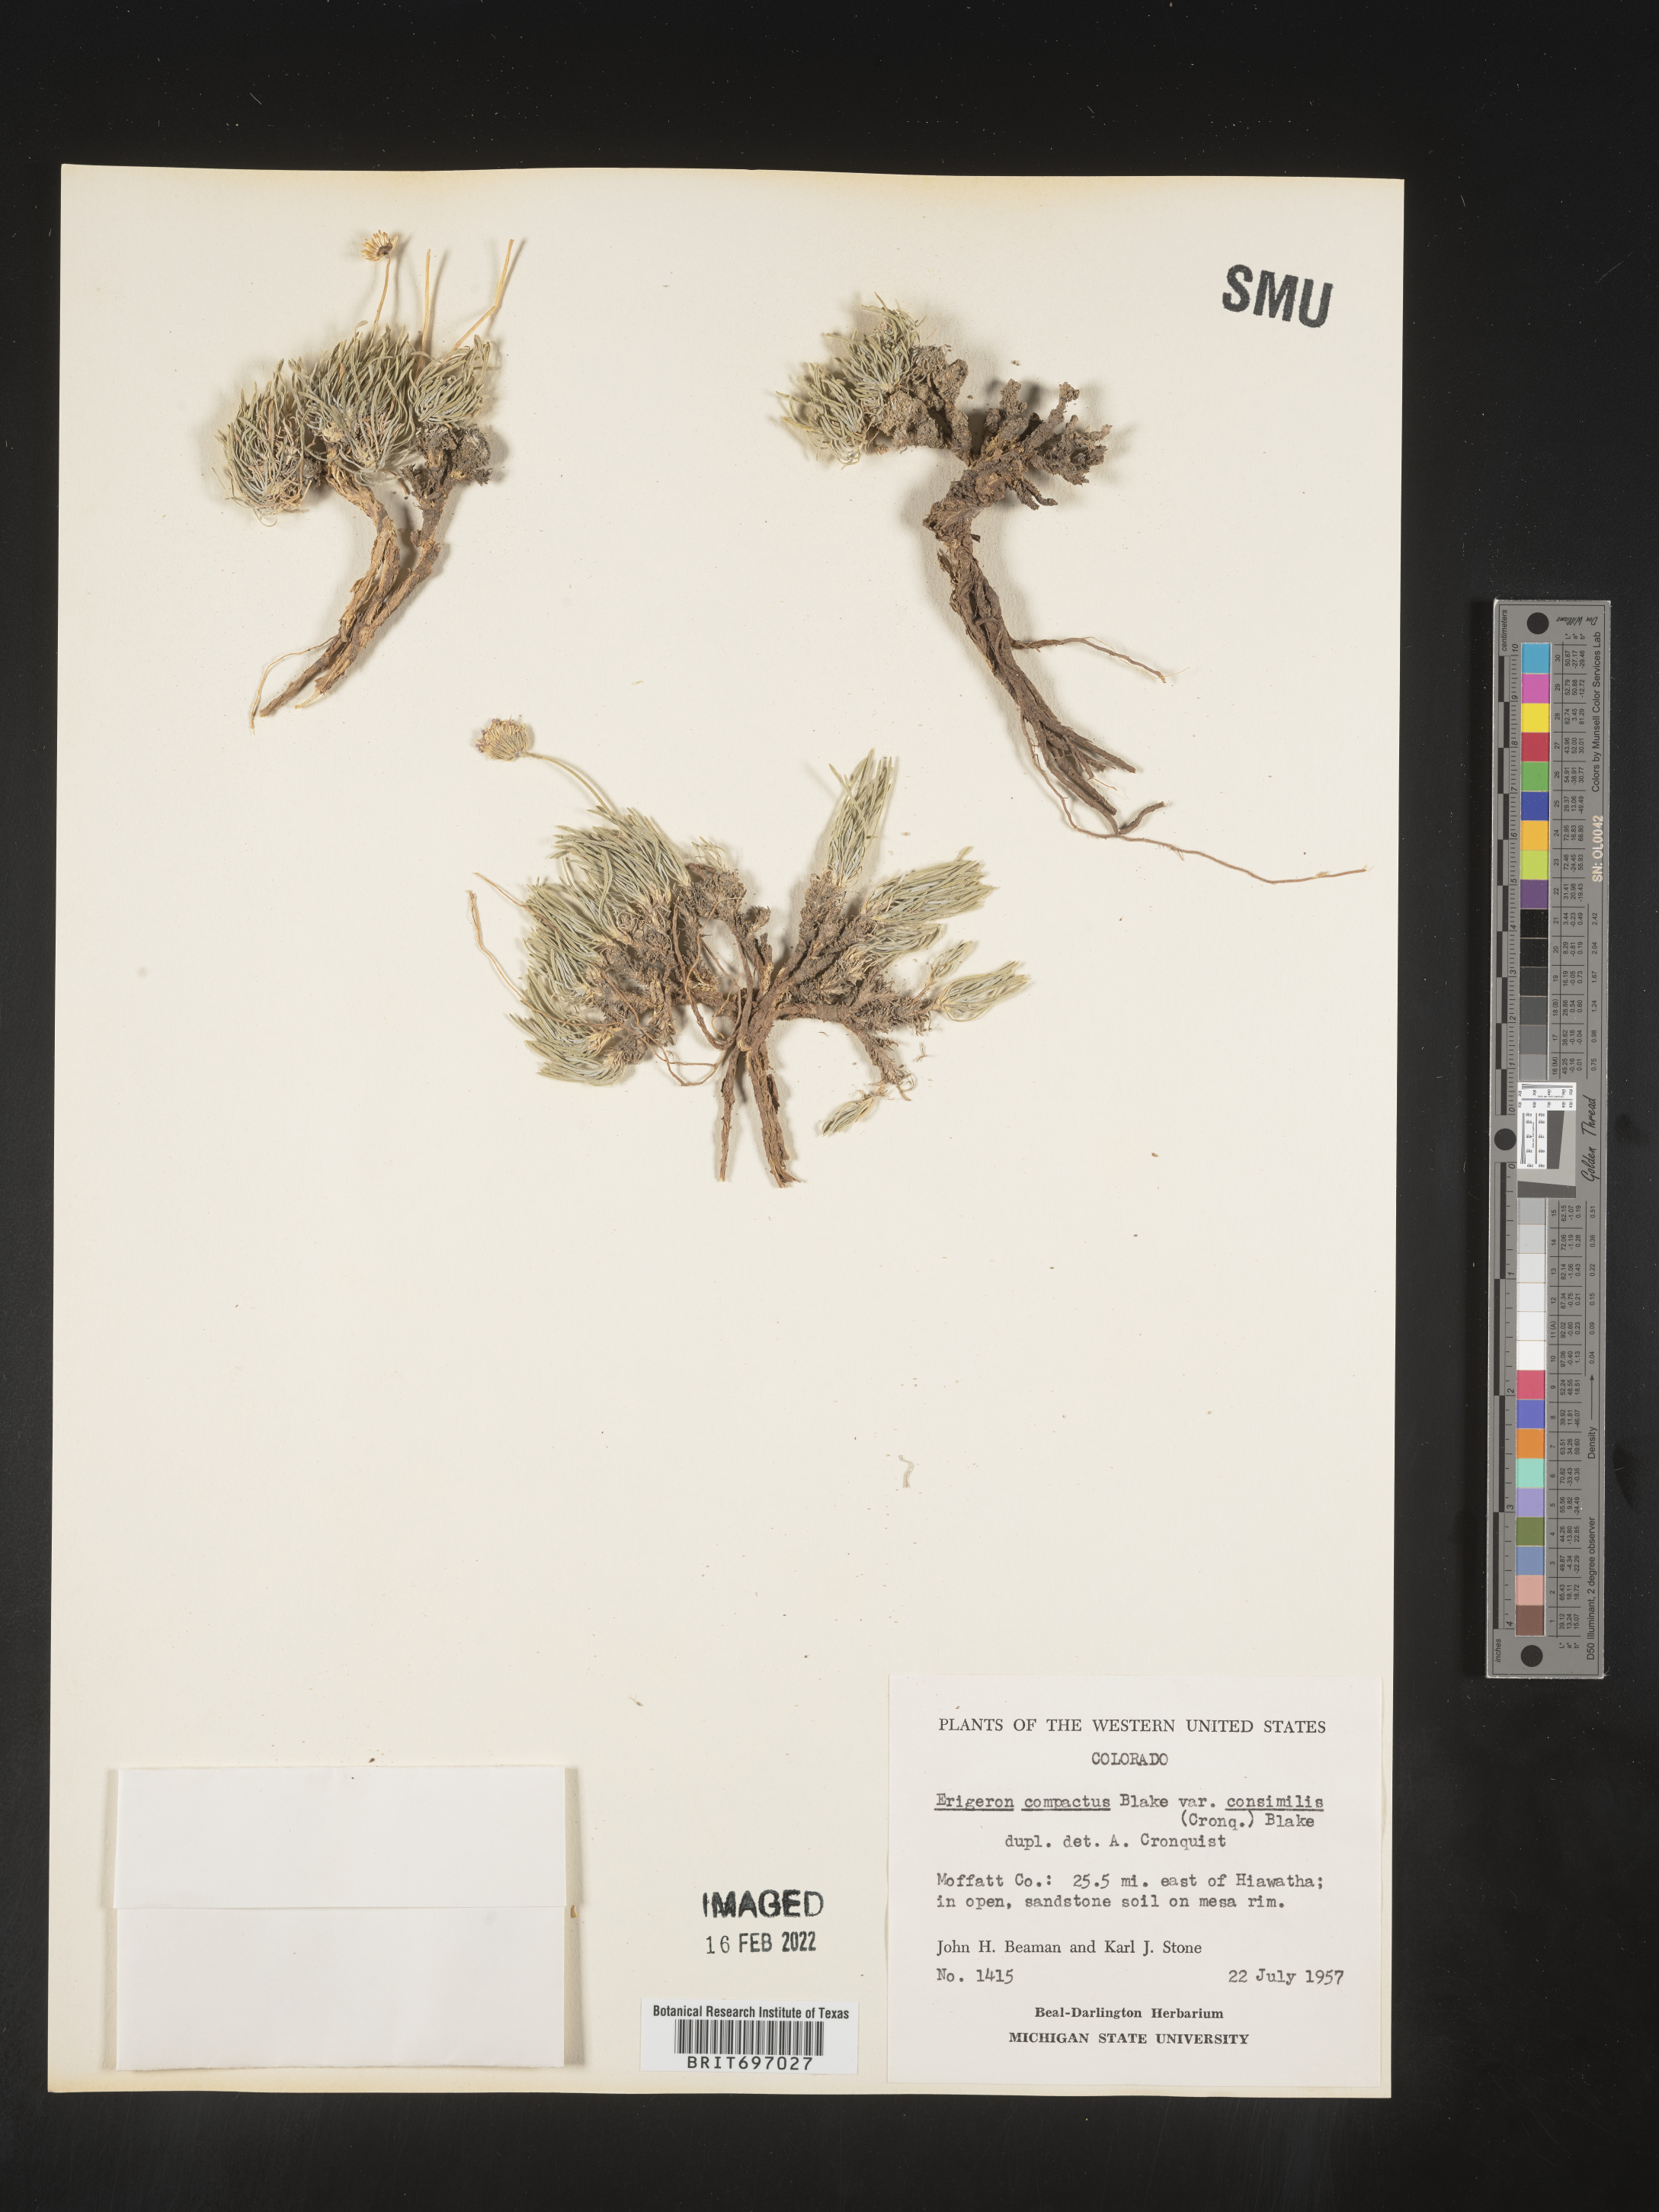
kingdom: Plantae
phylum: Tracheophyta
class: Magnoliopsida
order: Asterales
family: Asteraceae
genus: Erigeron
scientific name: Erigeron consimilis
